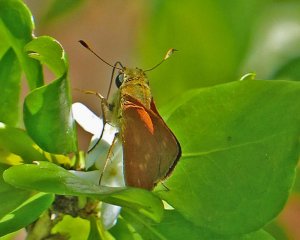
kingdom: Animalia
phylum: Arthropoda
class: Insecta
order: Lepidoptera
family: Hesperiidae
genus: Wallengrenia
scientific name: Wallengrenia otho
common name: Southern Broken-Dash
